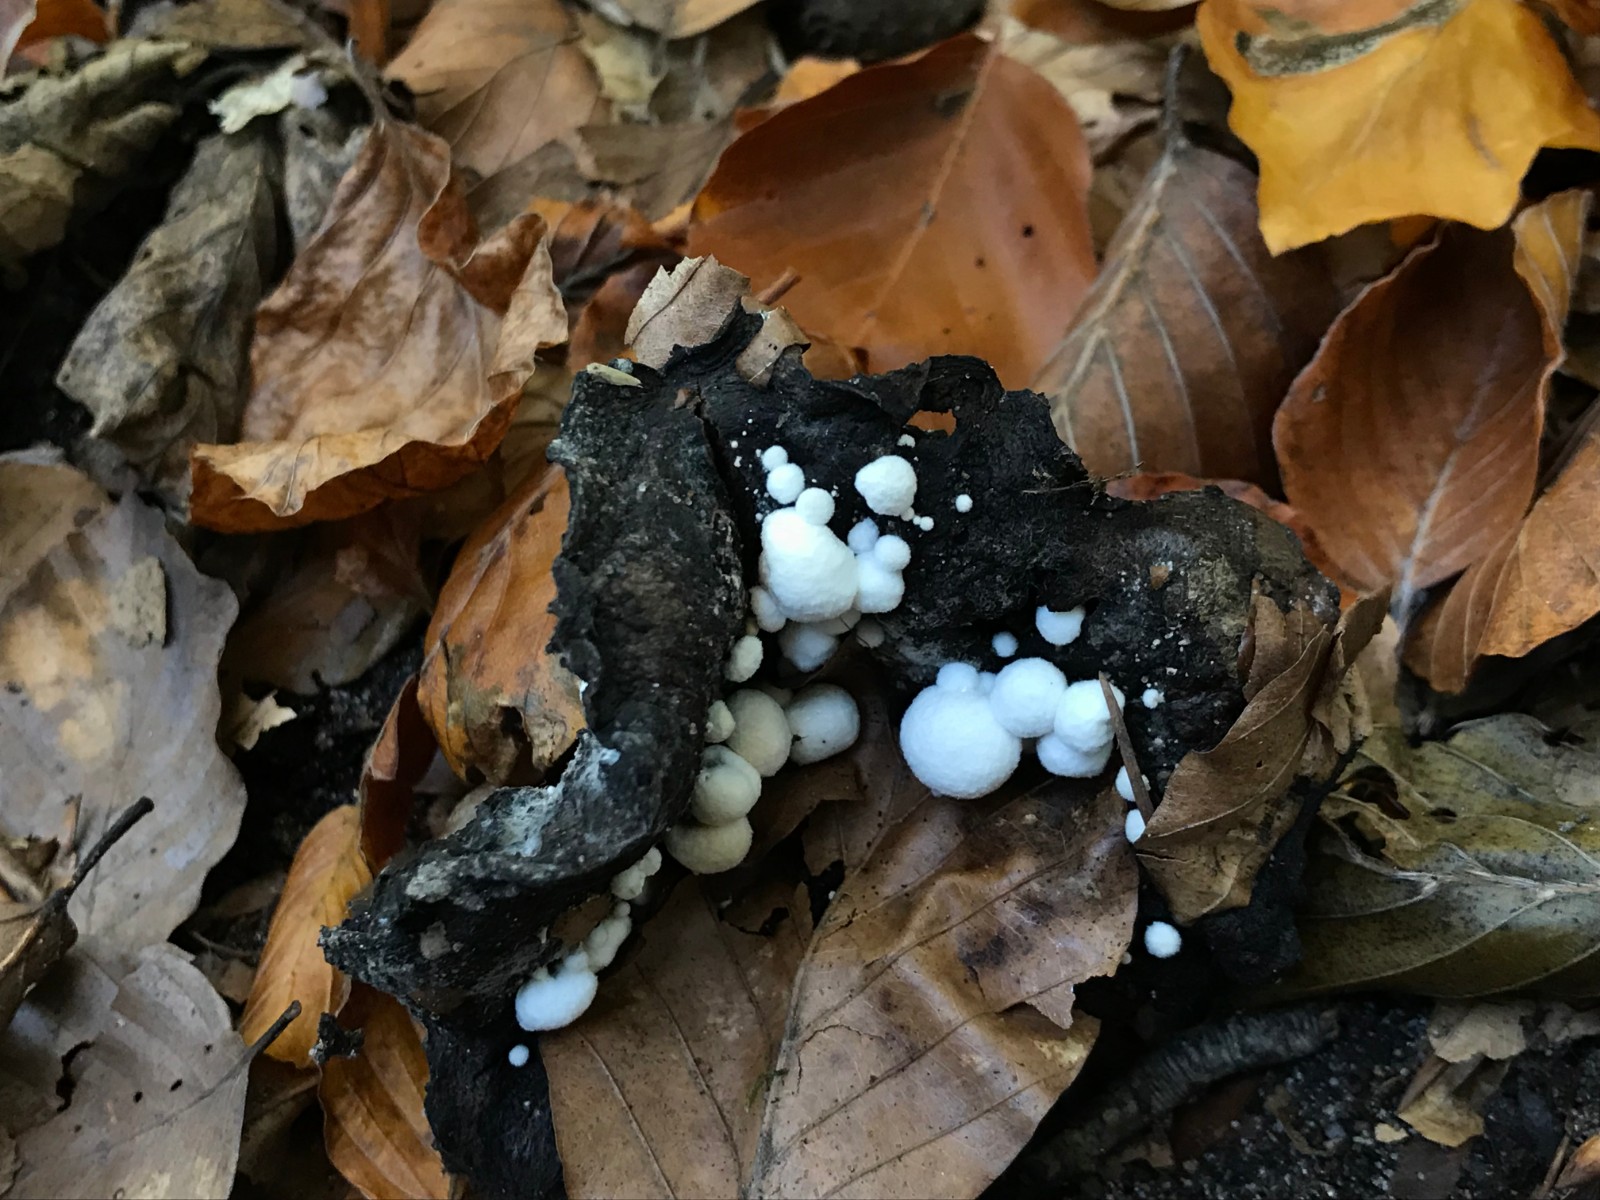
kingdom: Fungi
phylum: Basidiomycota
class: Agaricomycetes
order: Agaricales
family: Lyophyllaceae
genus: Asterophora
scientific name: Asterophora lycoperdoides
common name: brunpudret snyltehat
